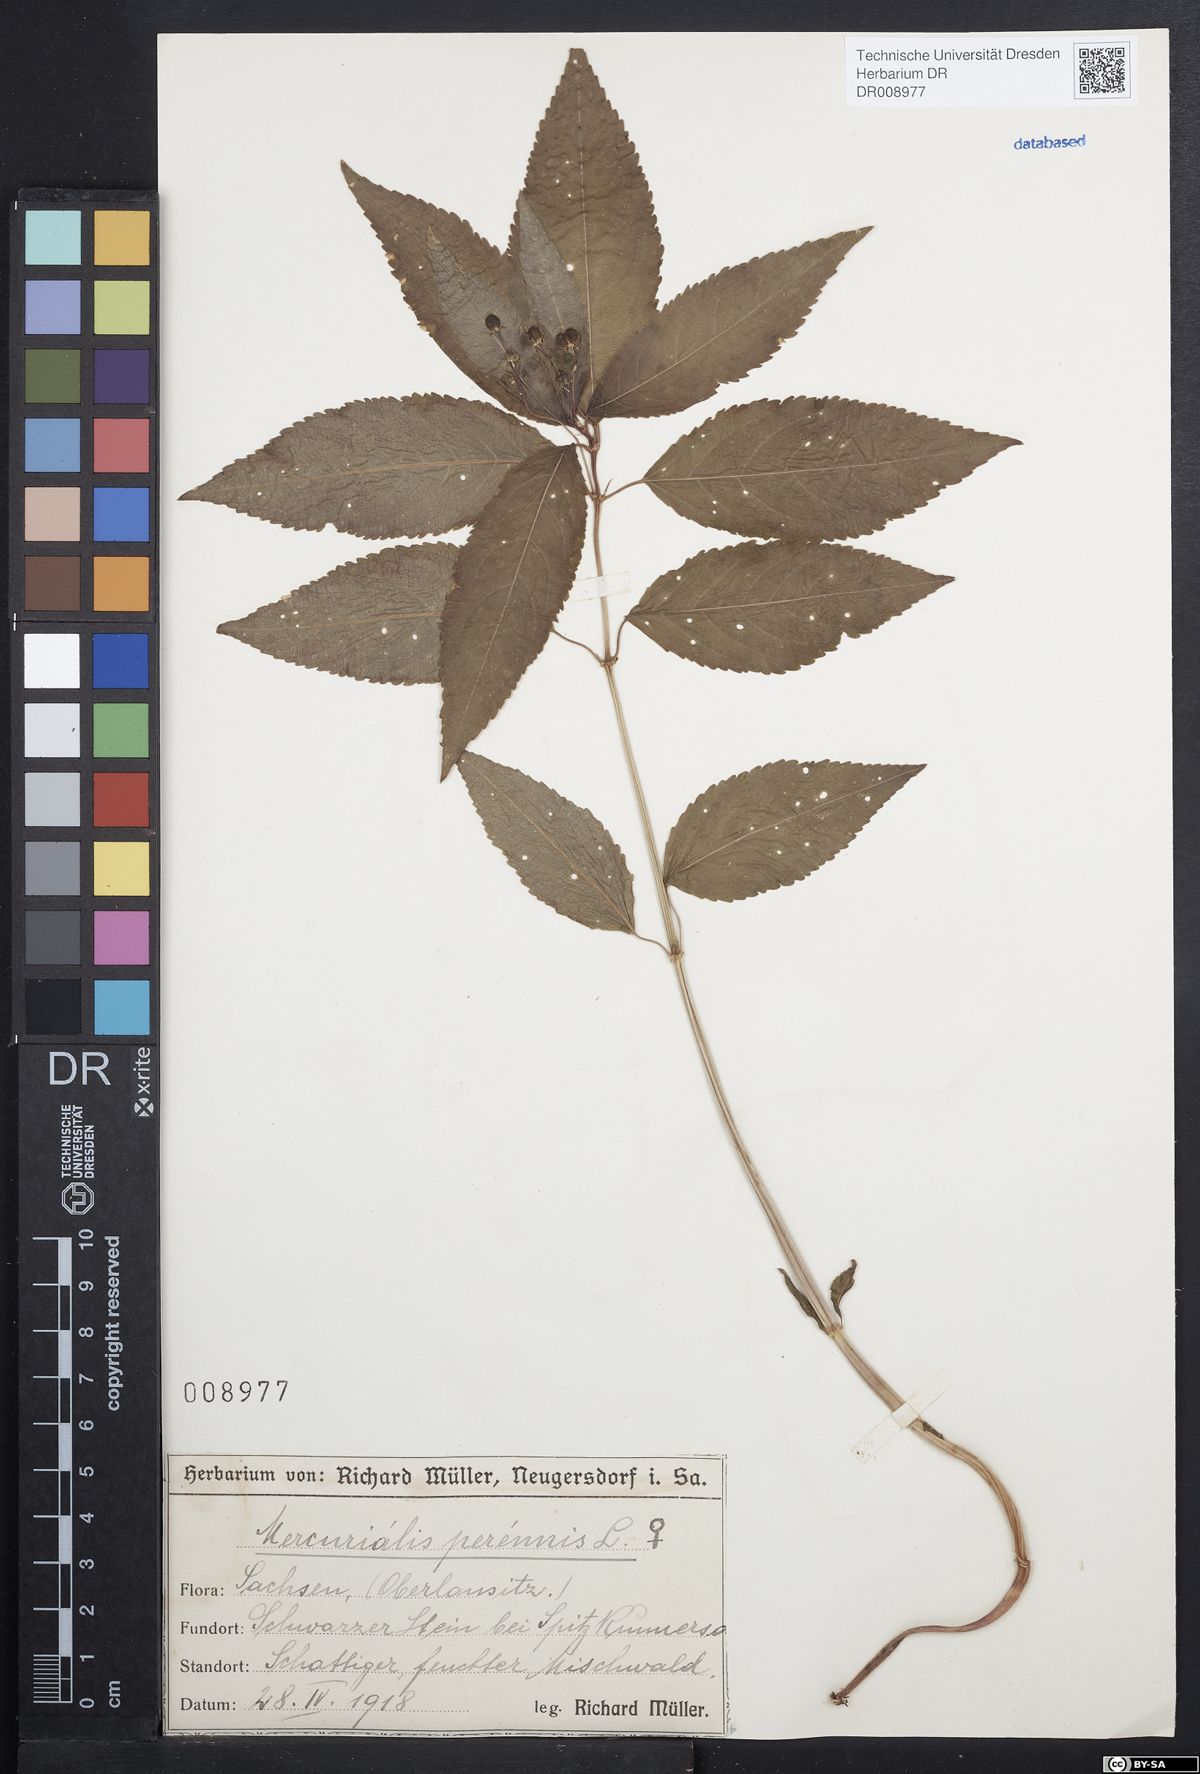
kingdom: Plantae
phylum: Tracheophyta
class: Magnoliopsida
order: Malpighiales
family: Euphorbiaceae
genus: Mercurialis
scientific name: Mercurialis perennis
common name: Dog mercury
